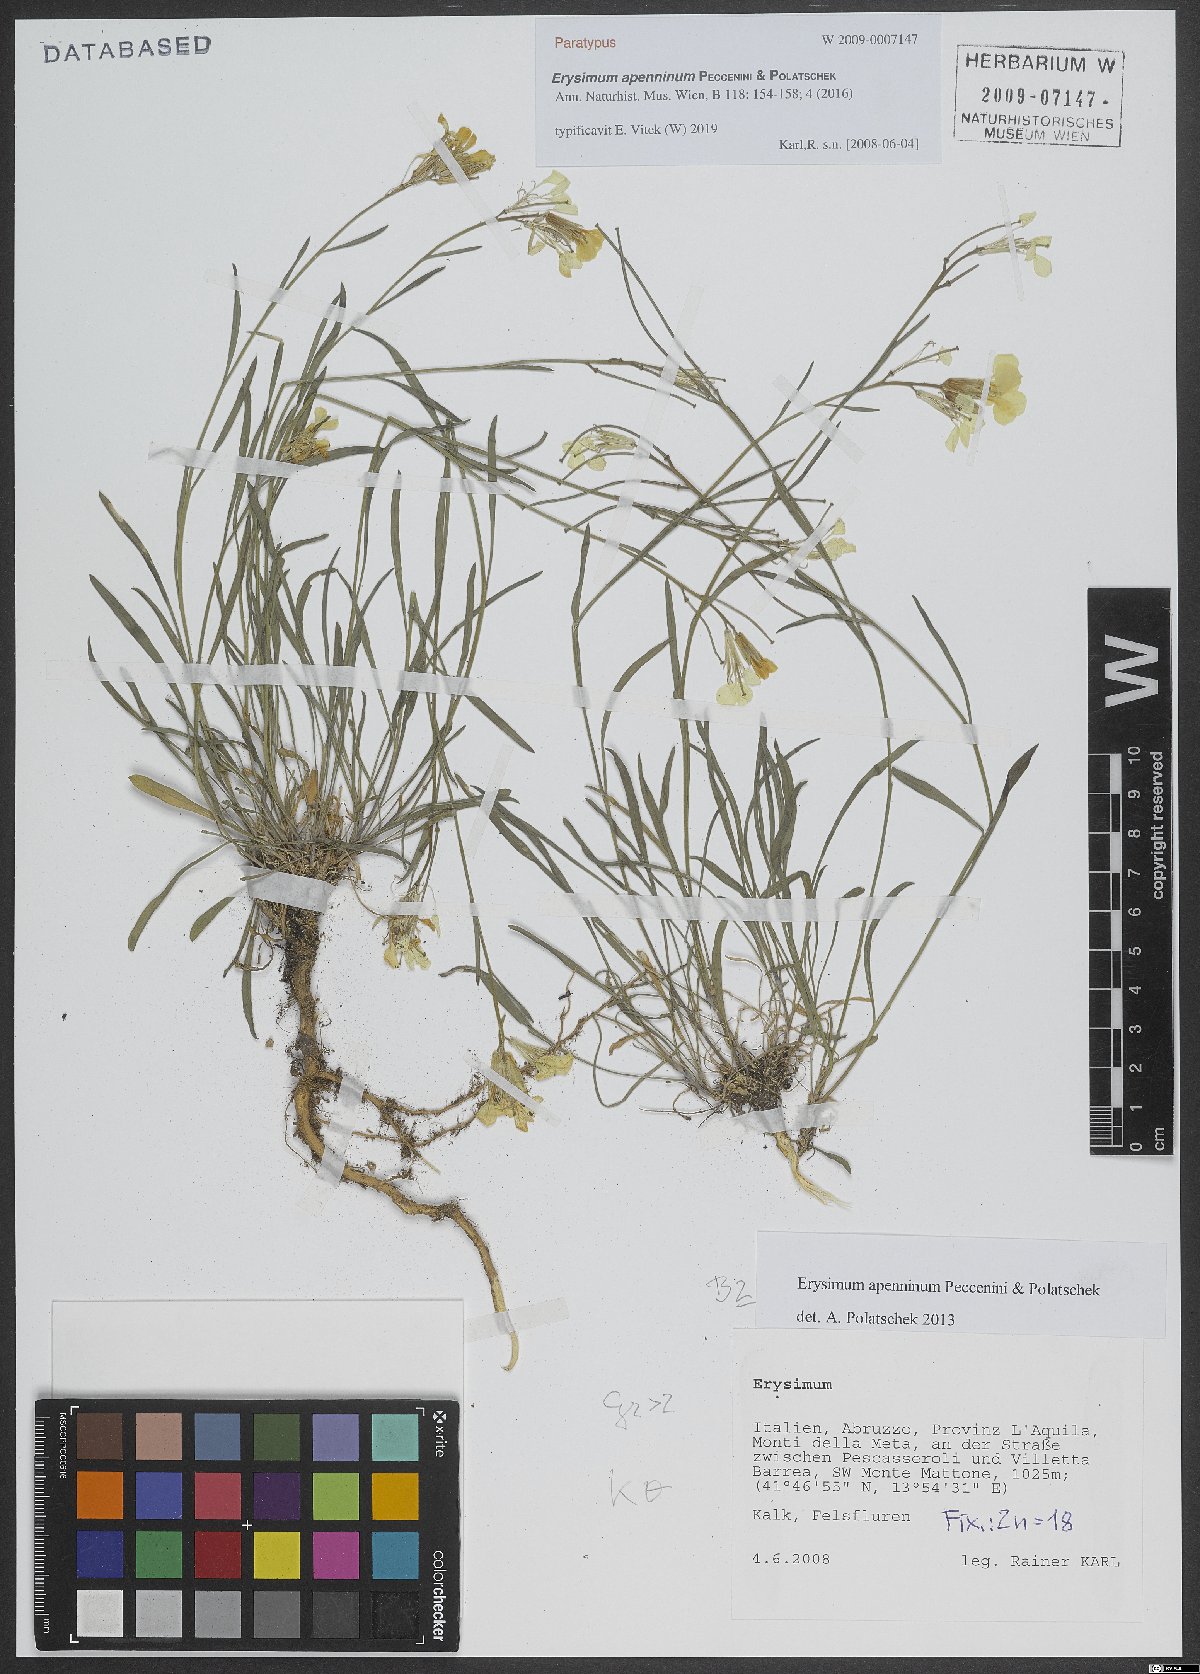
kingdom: Plantae
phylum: Tracheophyta
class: Magnoliopsida
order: Brassicales
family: Brassicaceae
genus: Erysimum
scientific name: Erysimum apenninum
